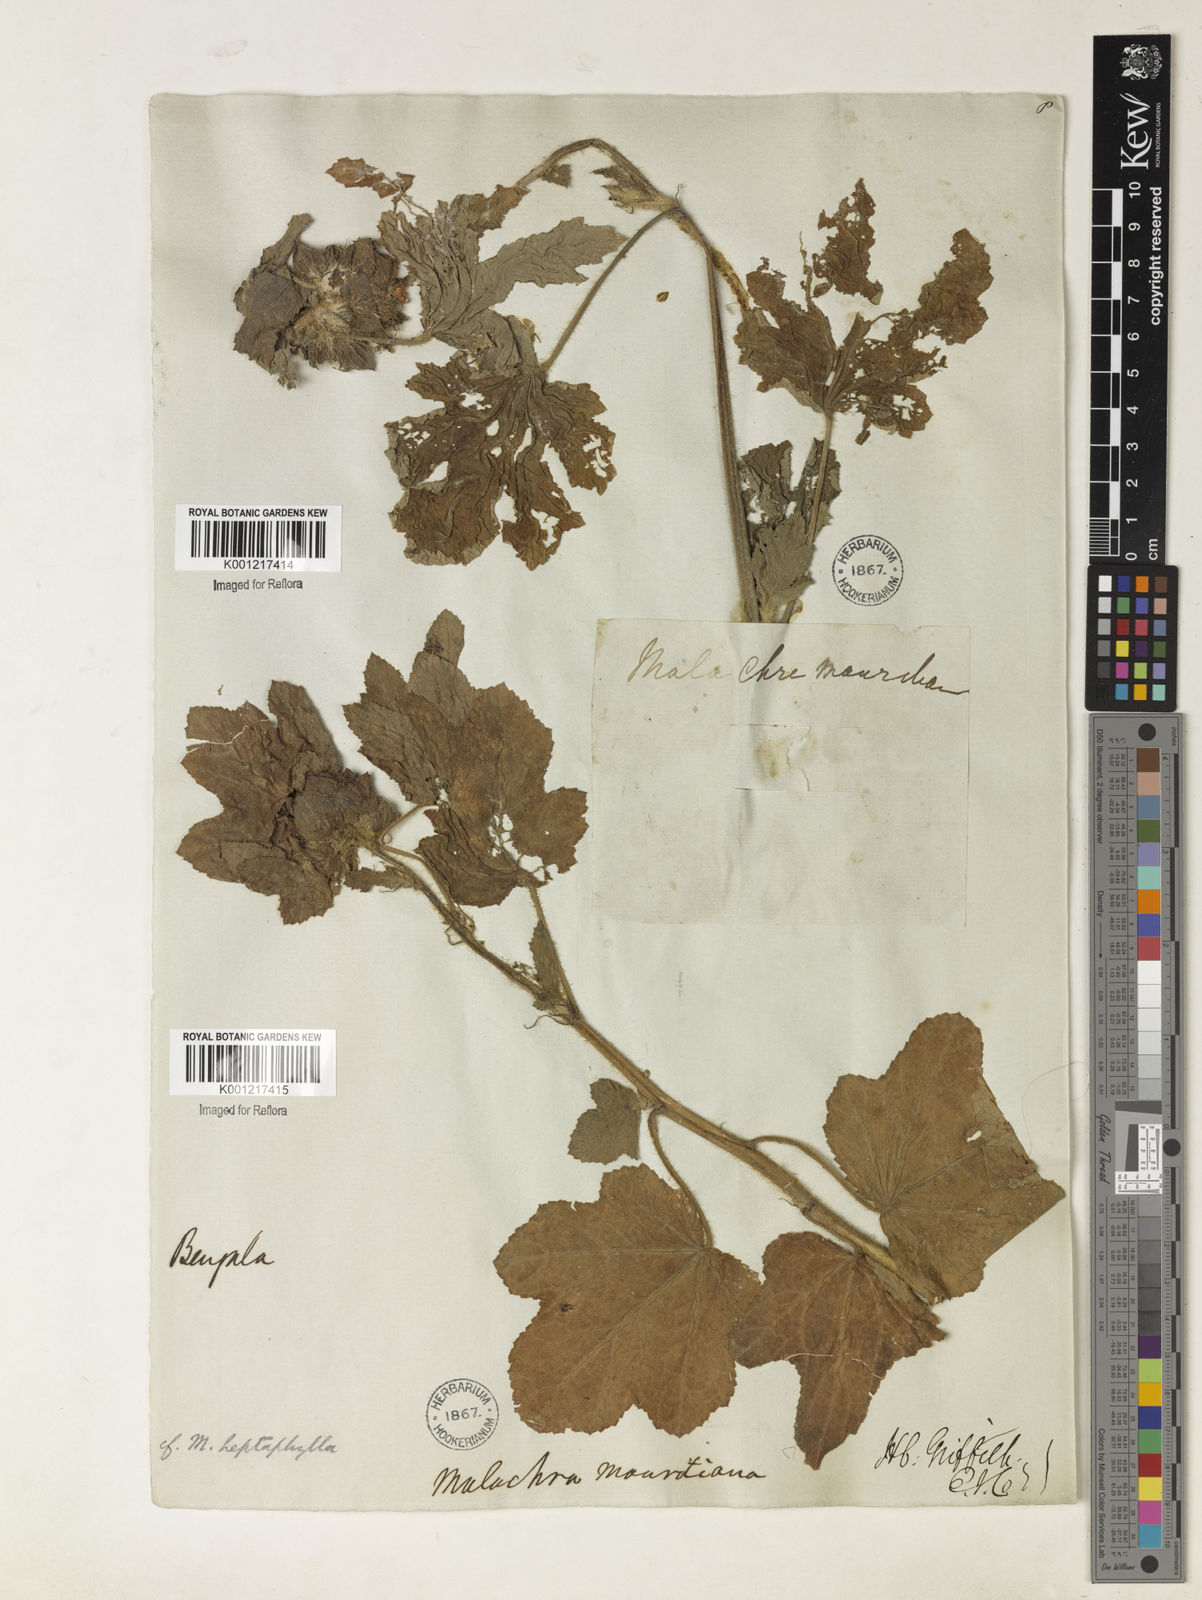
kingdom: Plantae
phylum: Tracheophyta
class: Magnoliopsida
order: Malvales
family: Malvaceae
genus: Malachra
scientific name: Malachra capitata
